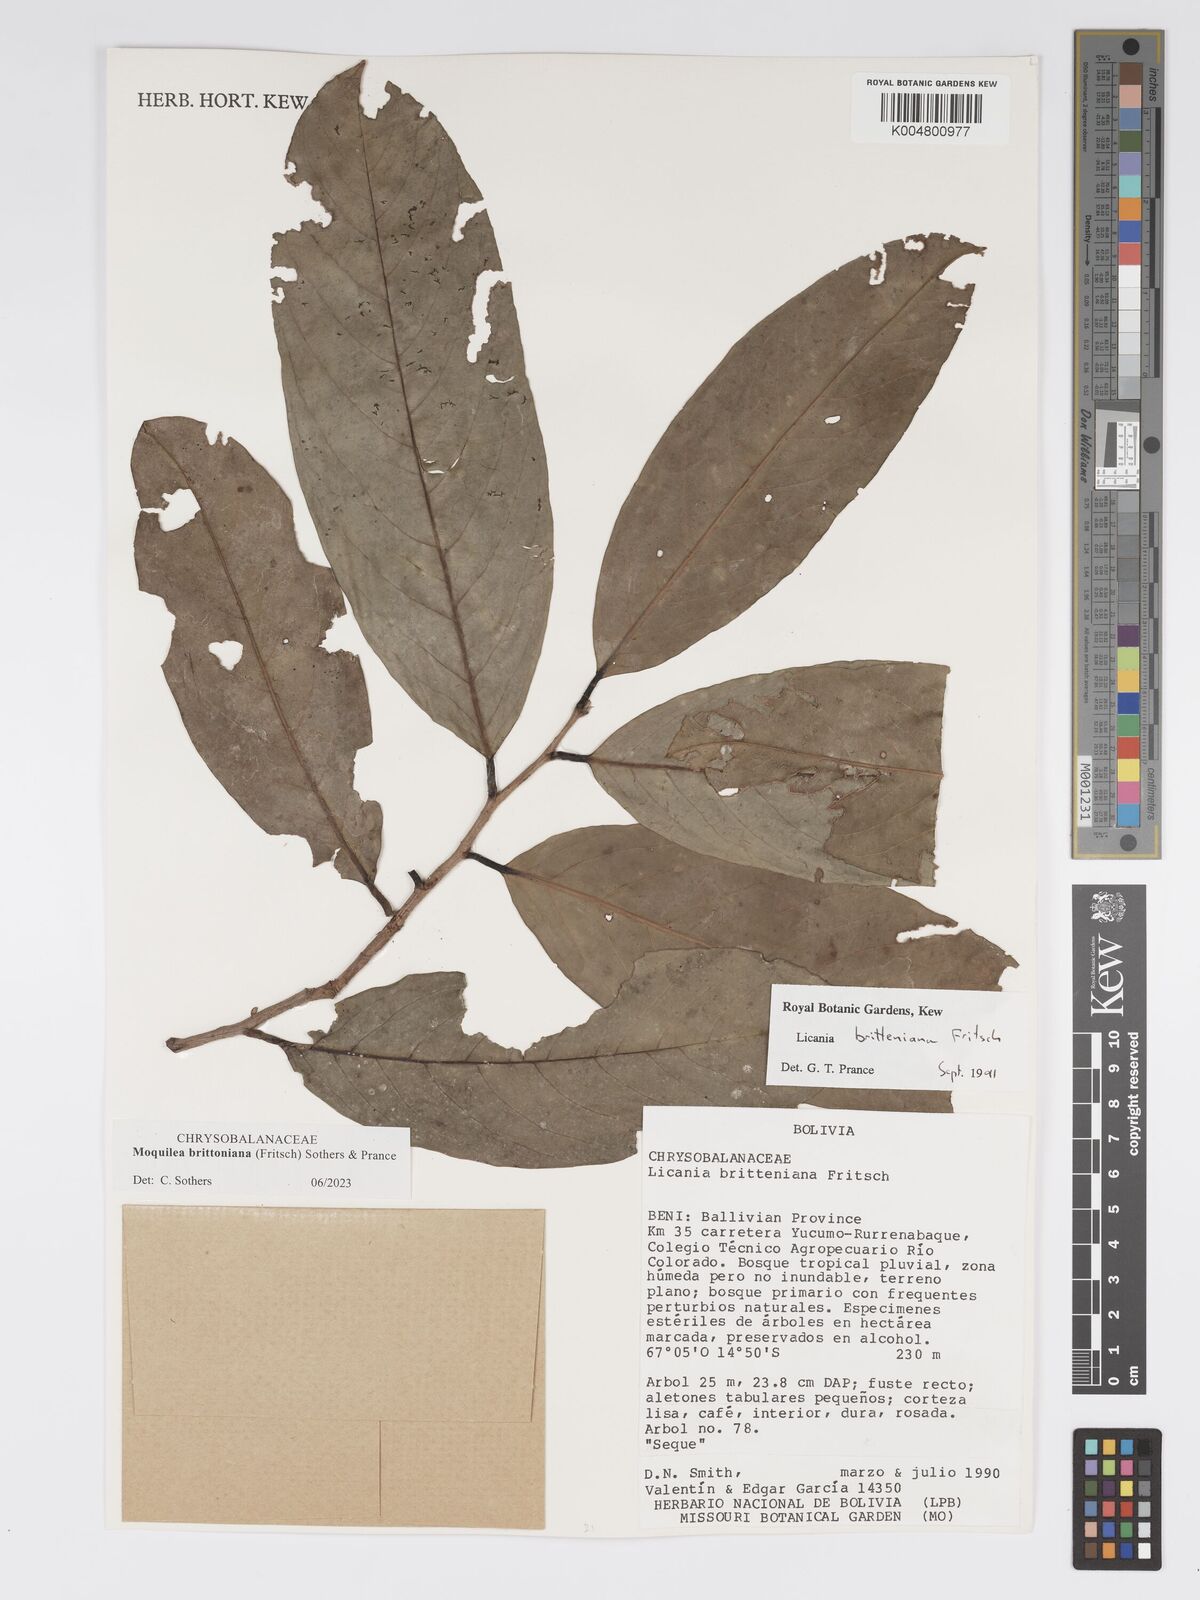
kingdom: Plantae
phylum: Tracheophyta
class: Magnoliopsida
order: Malpighiales
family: Chrysobalanaceae
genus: Moquilea
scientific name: Moquilea brittoniana
